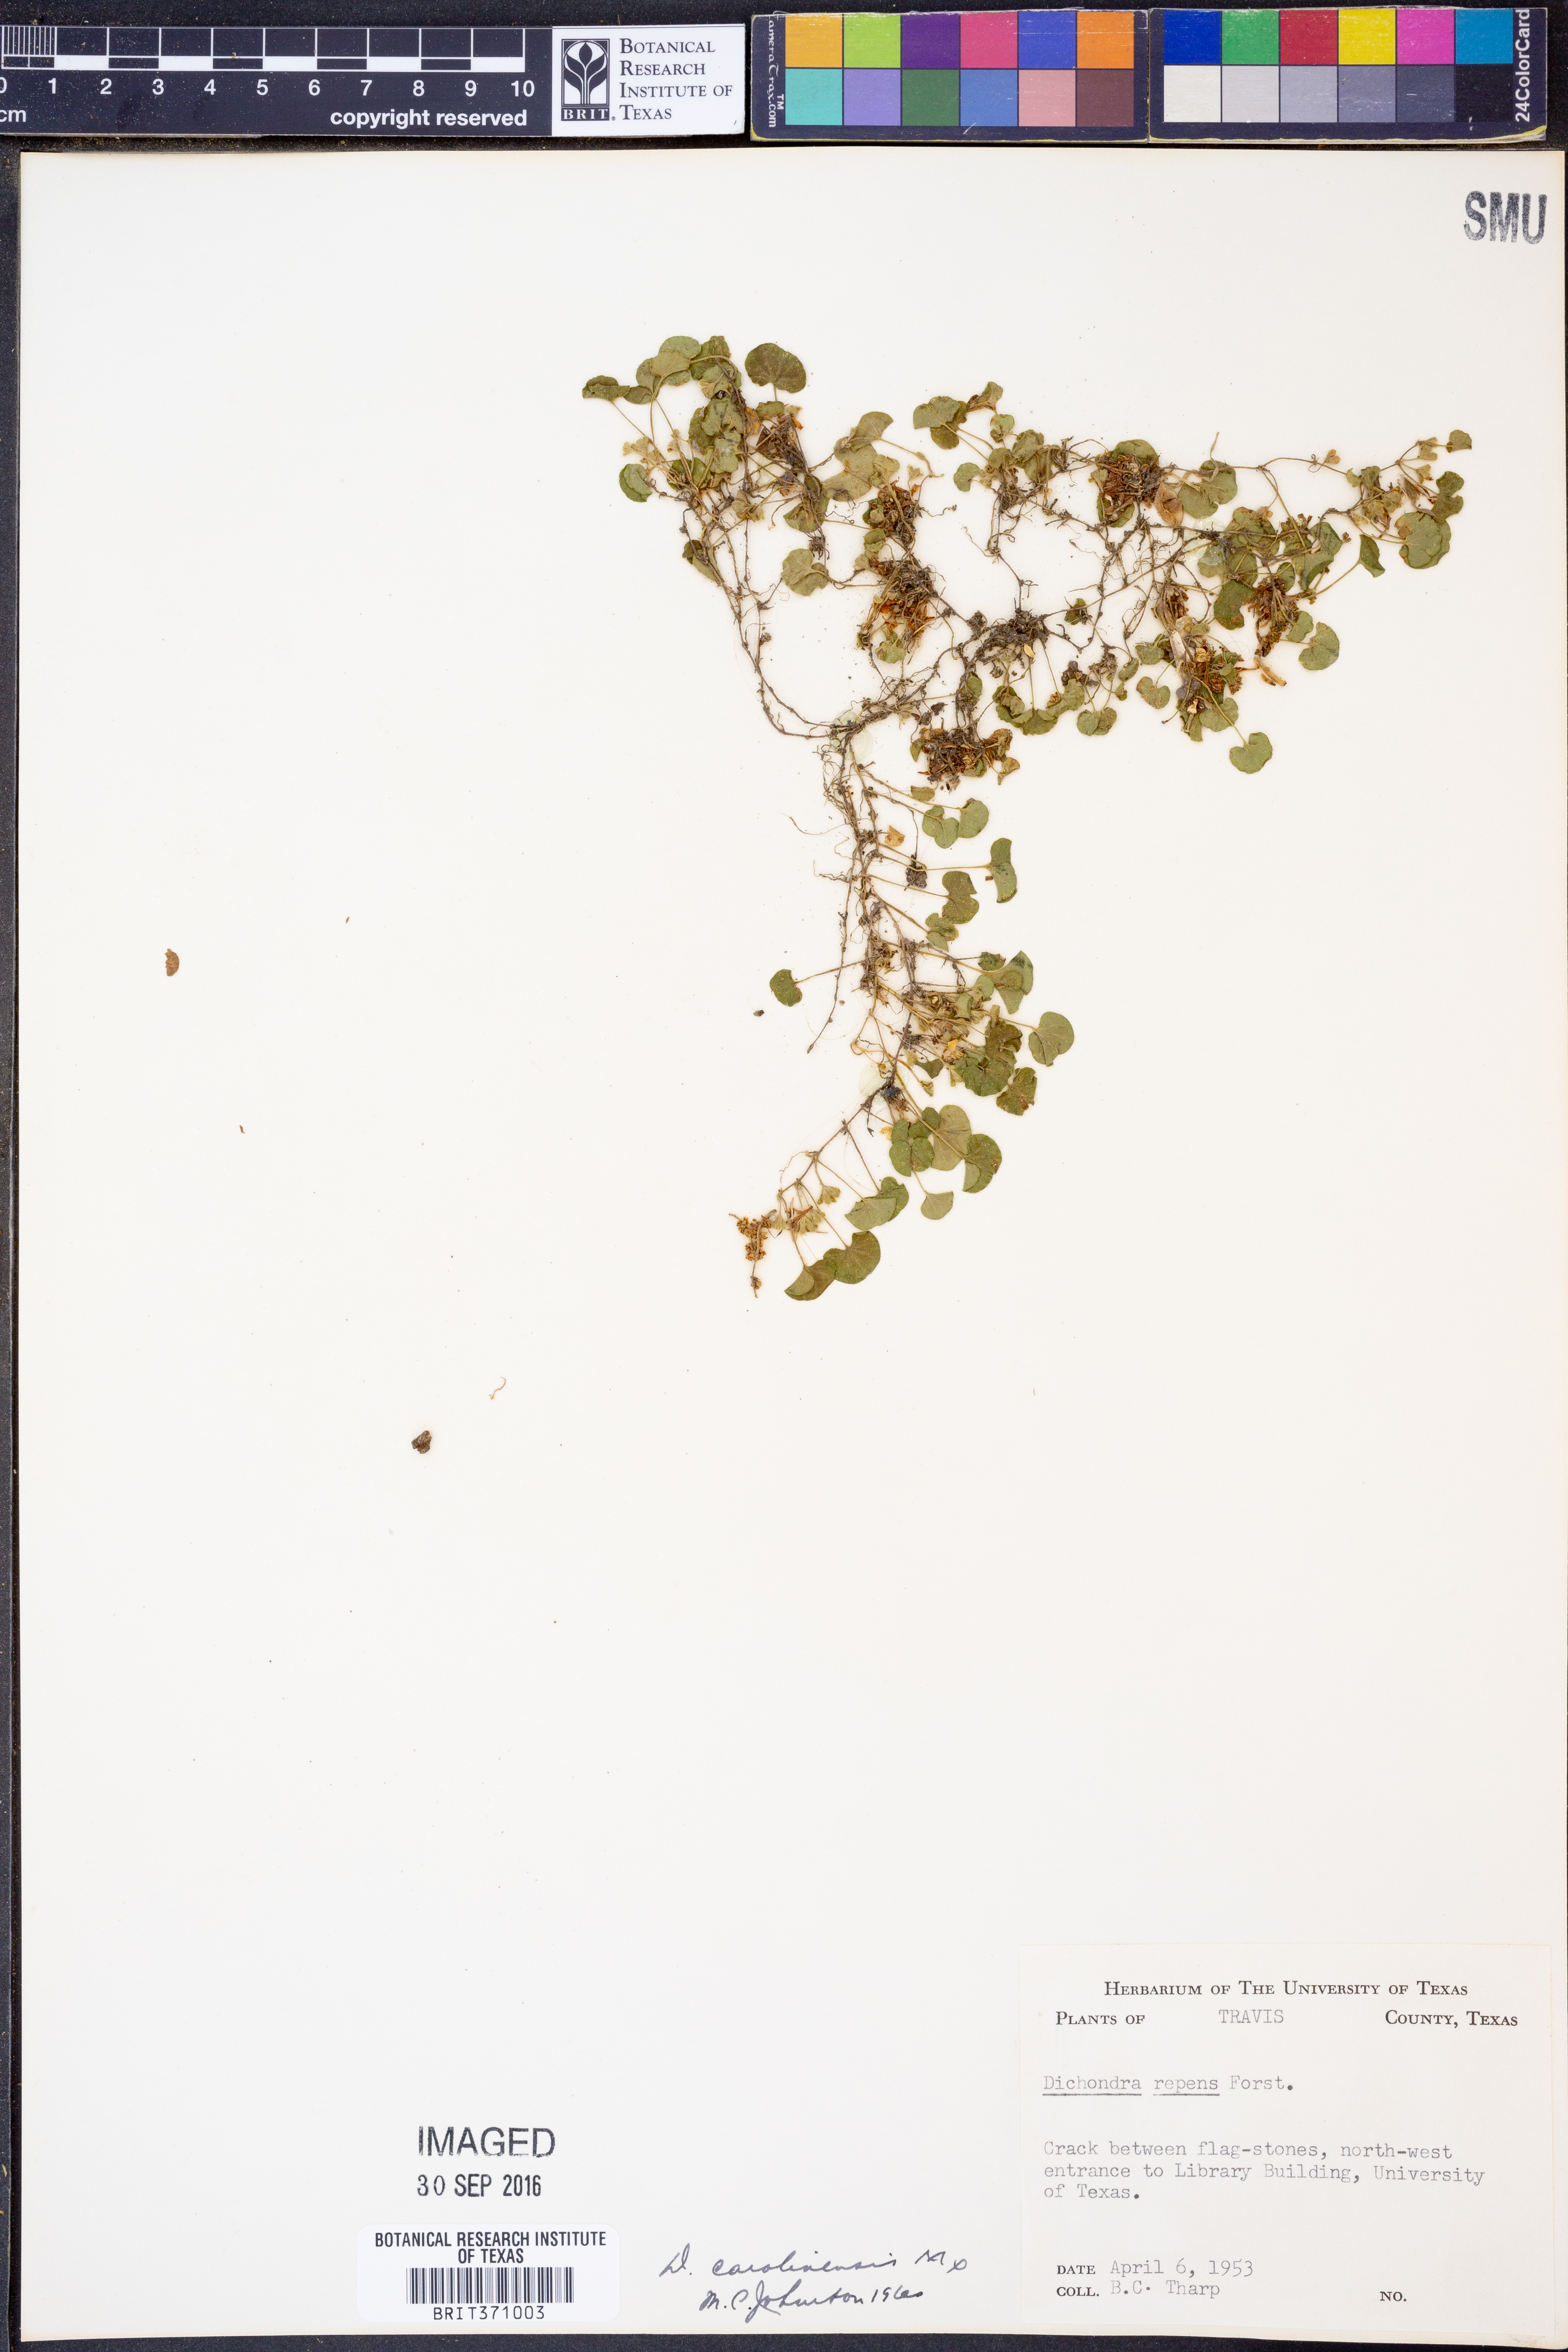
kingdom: Plantae
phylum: Tracheophyta
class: Magnoliopsida
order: Solanales
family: Convolvulaceae
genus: Dichondra
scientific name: Dichondra carolinensis
